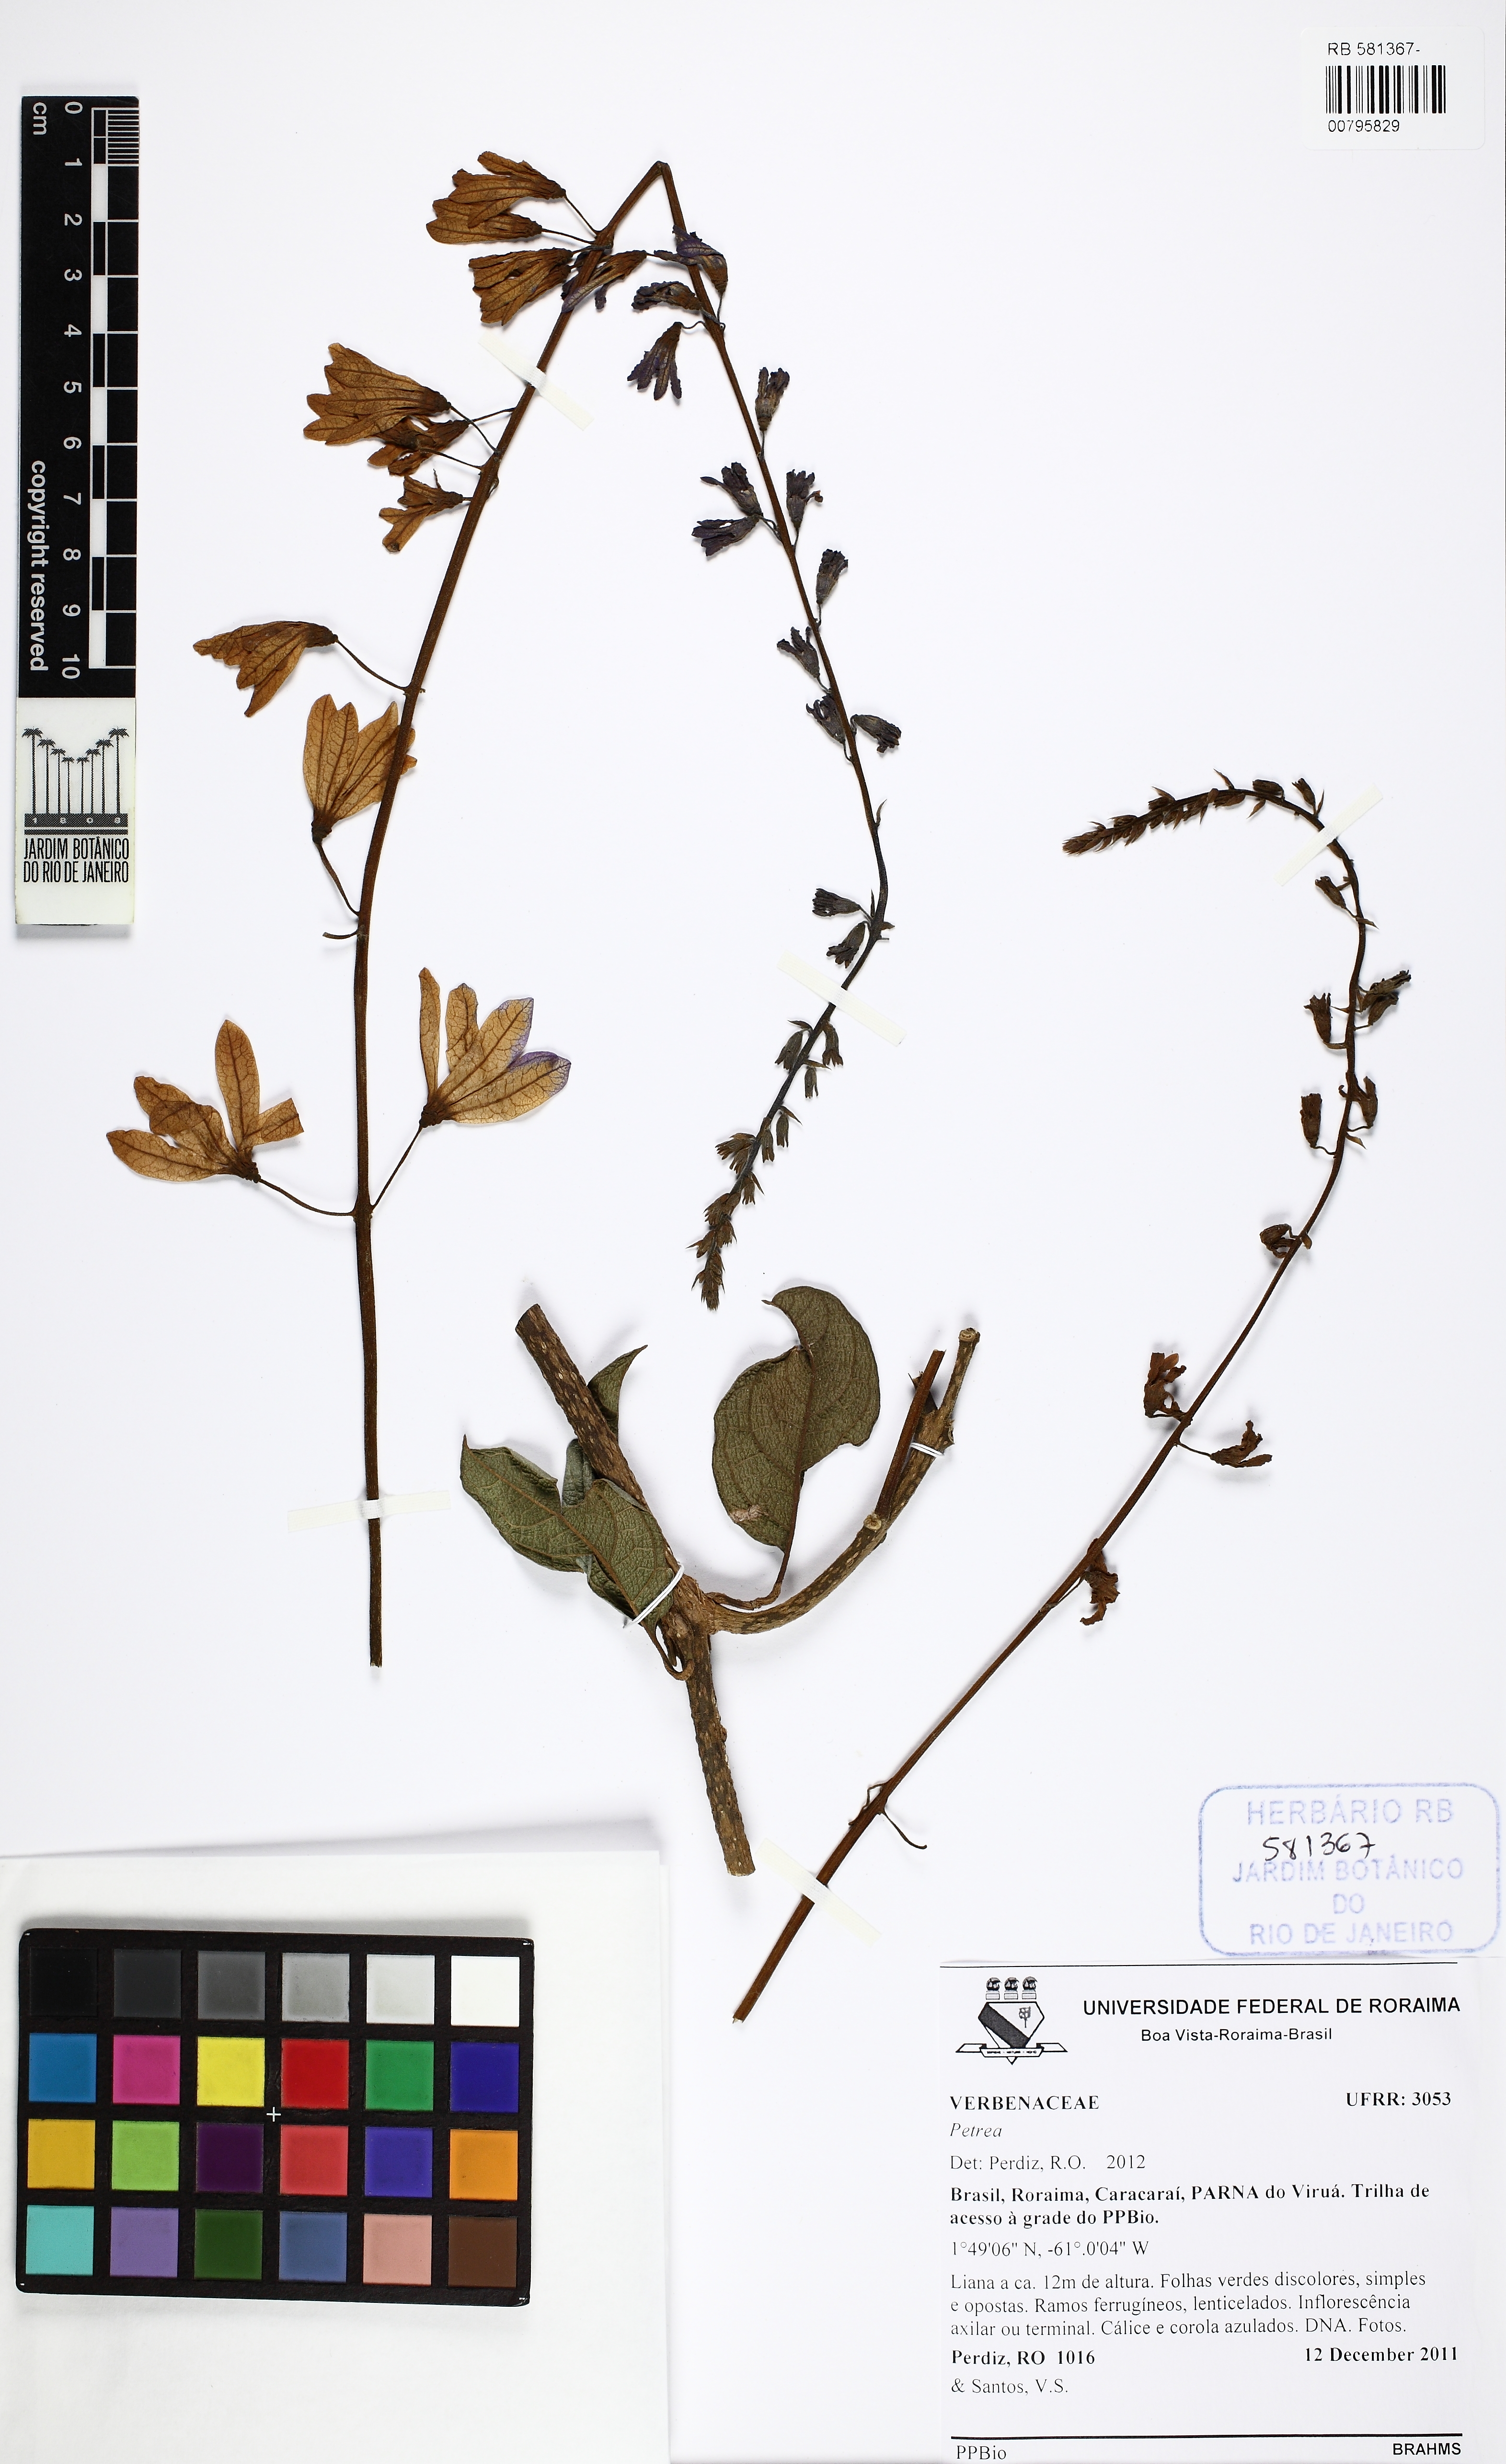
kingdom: Plantae
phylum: Tracheophyta
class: Magnoliopsida
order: Lamiales
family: Verbenaceae
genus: Petrea
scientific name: Petrea
